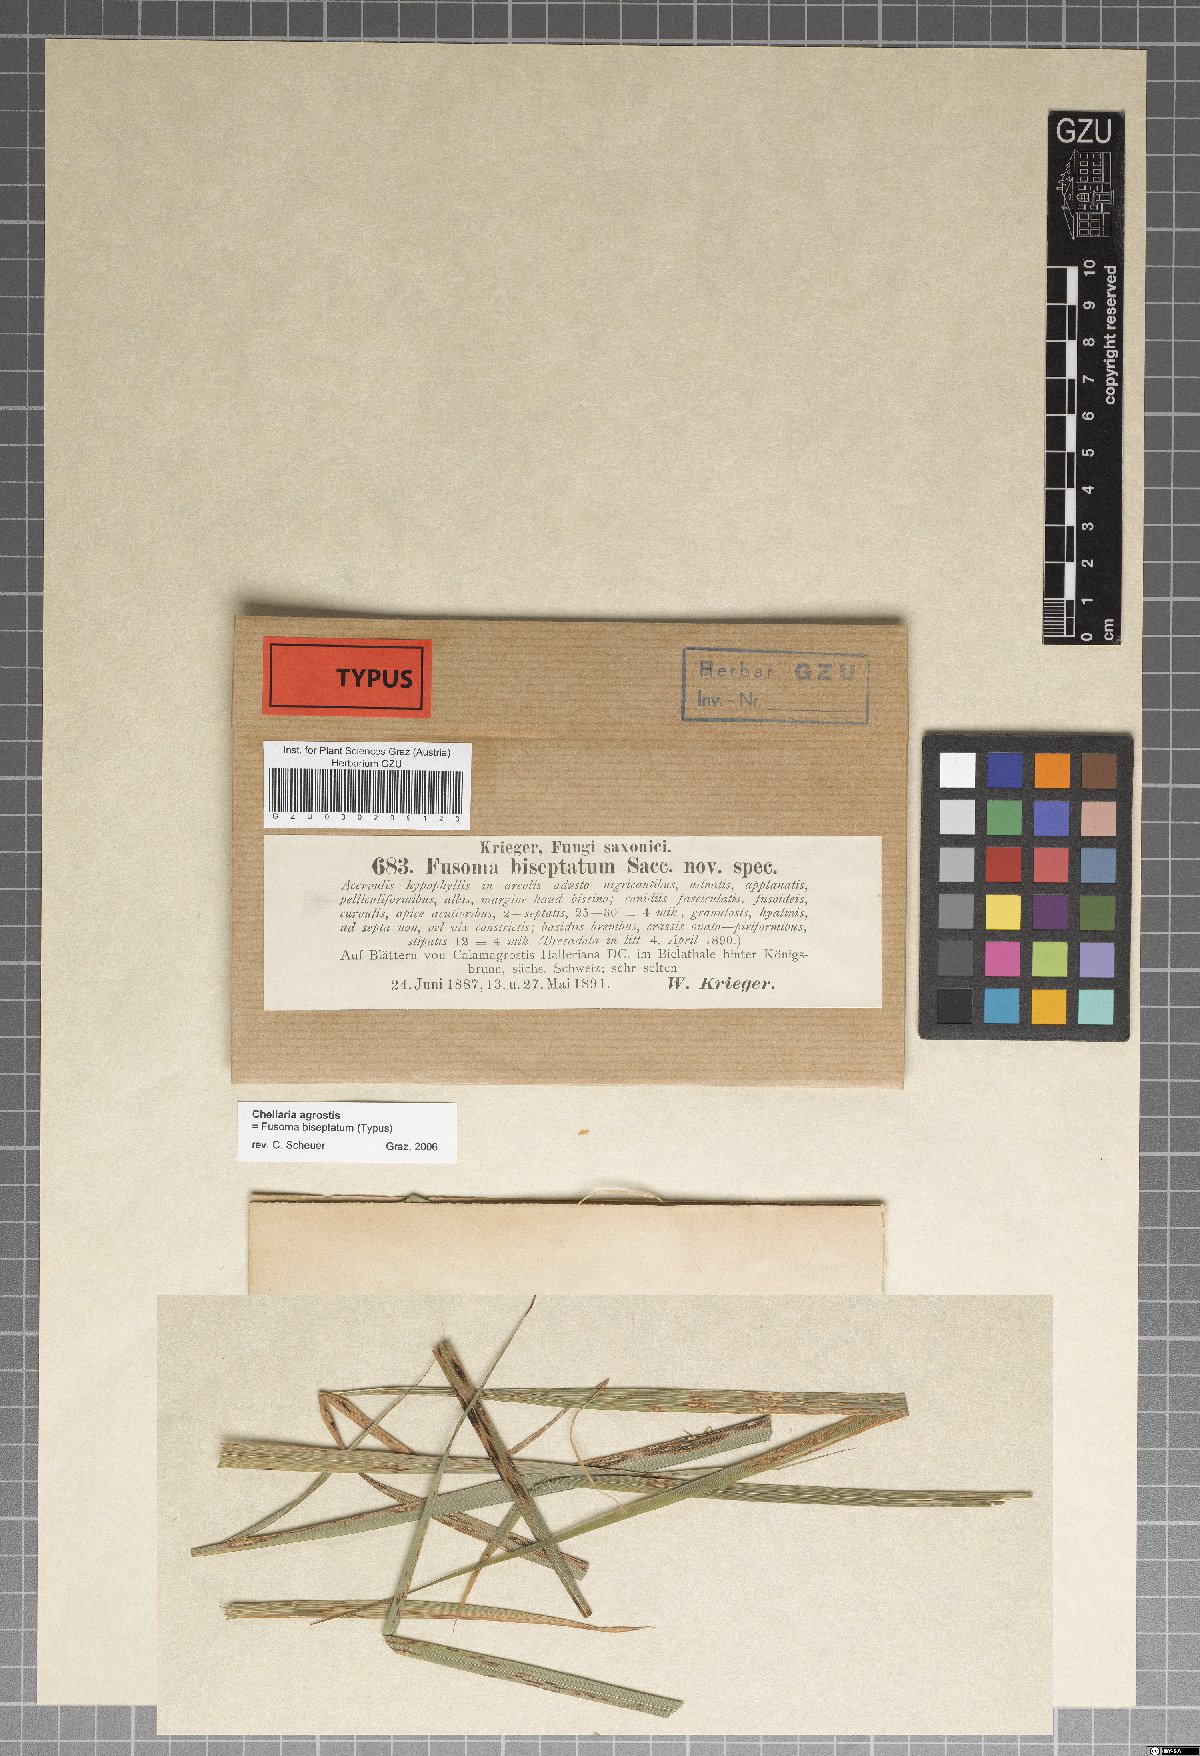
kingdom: Fungi
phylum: Ascomycota
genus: Fusoma
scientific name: Fusoma biseptatum
